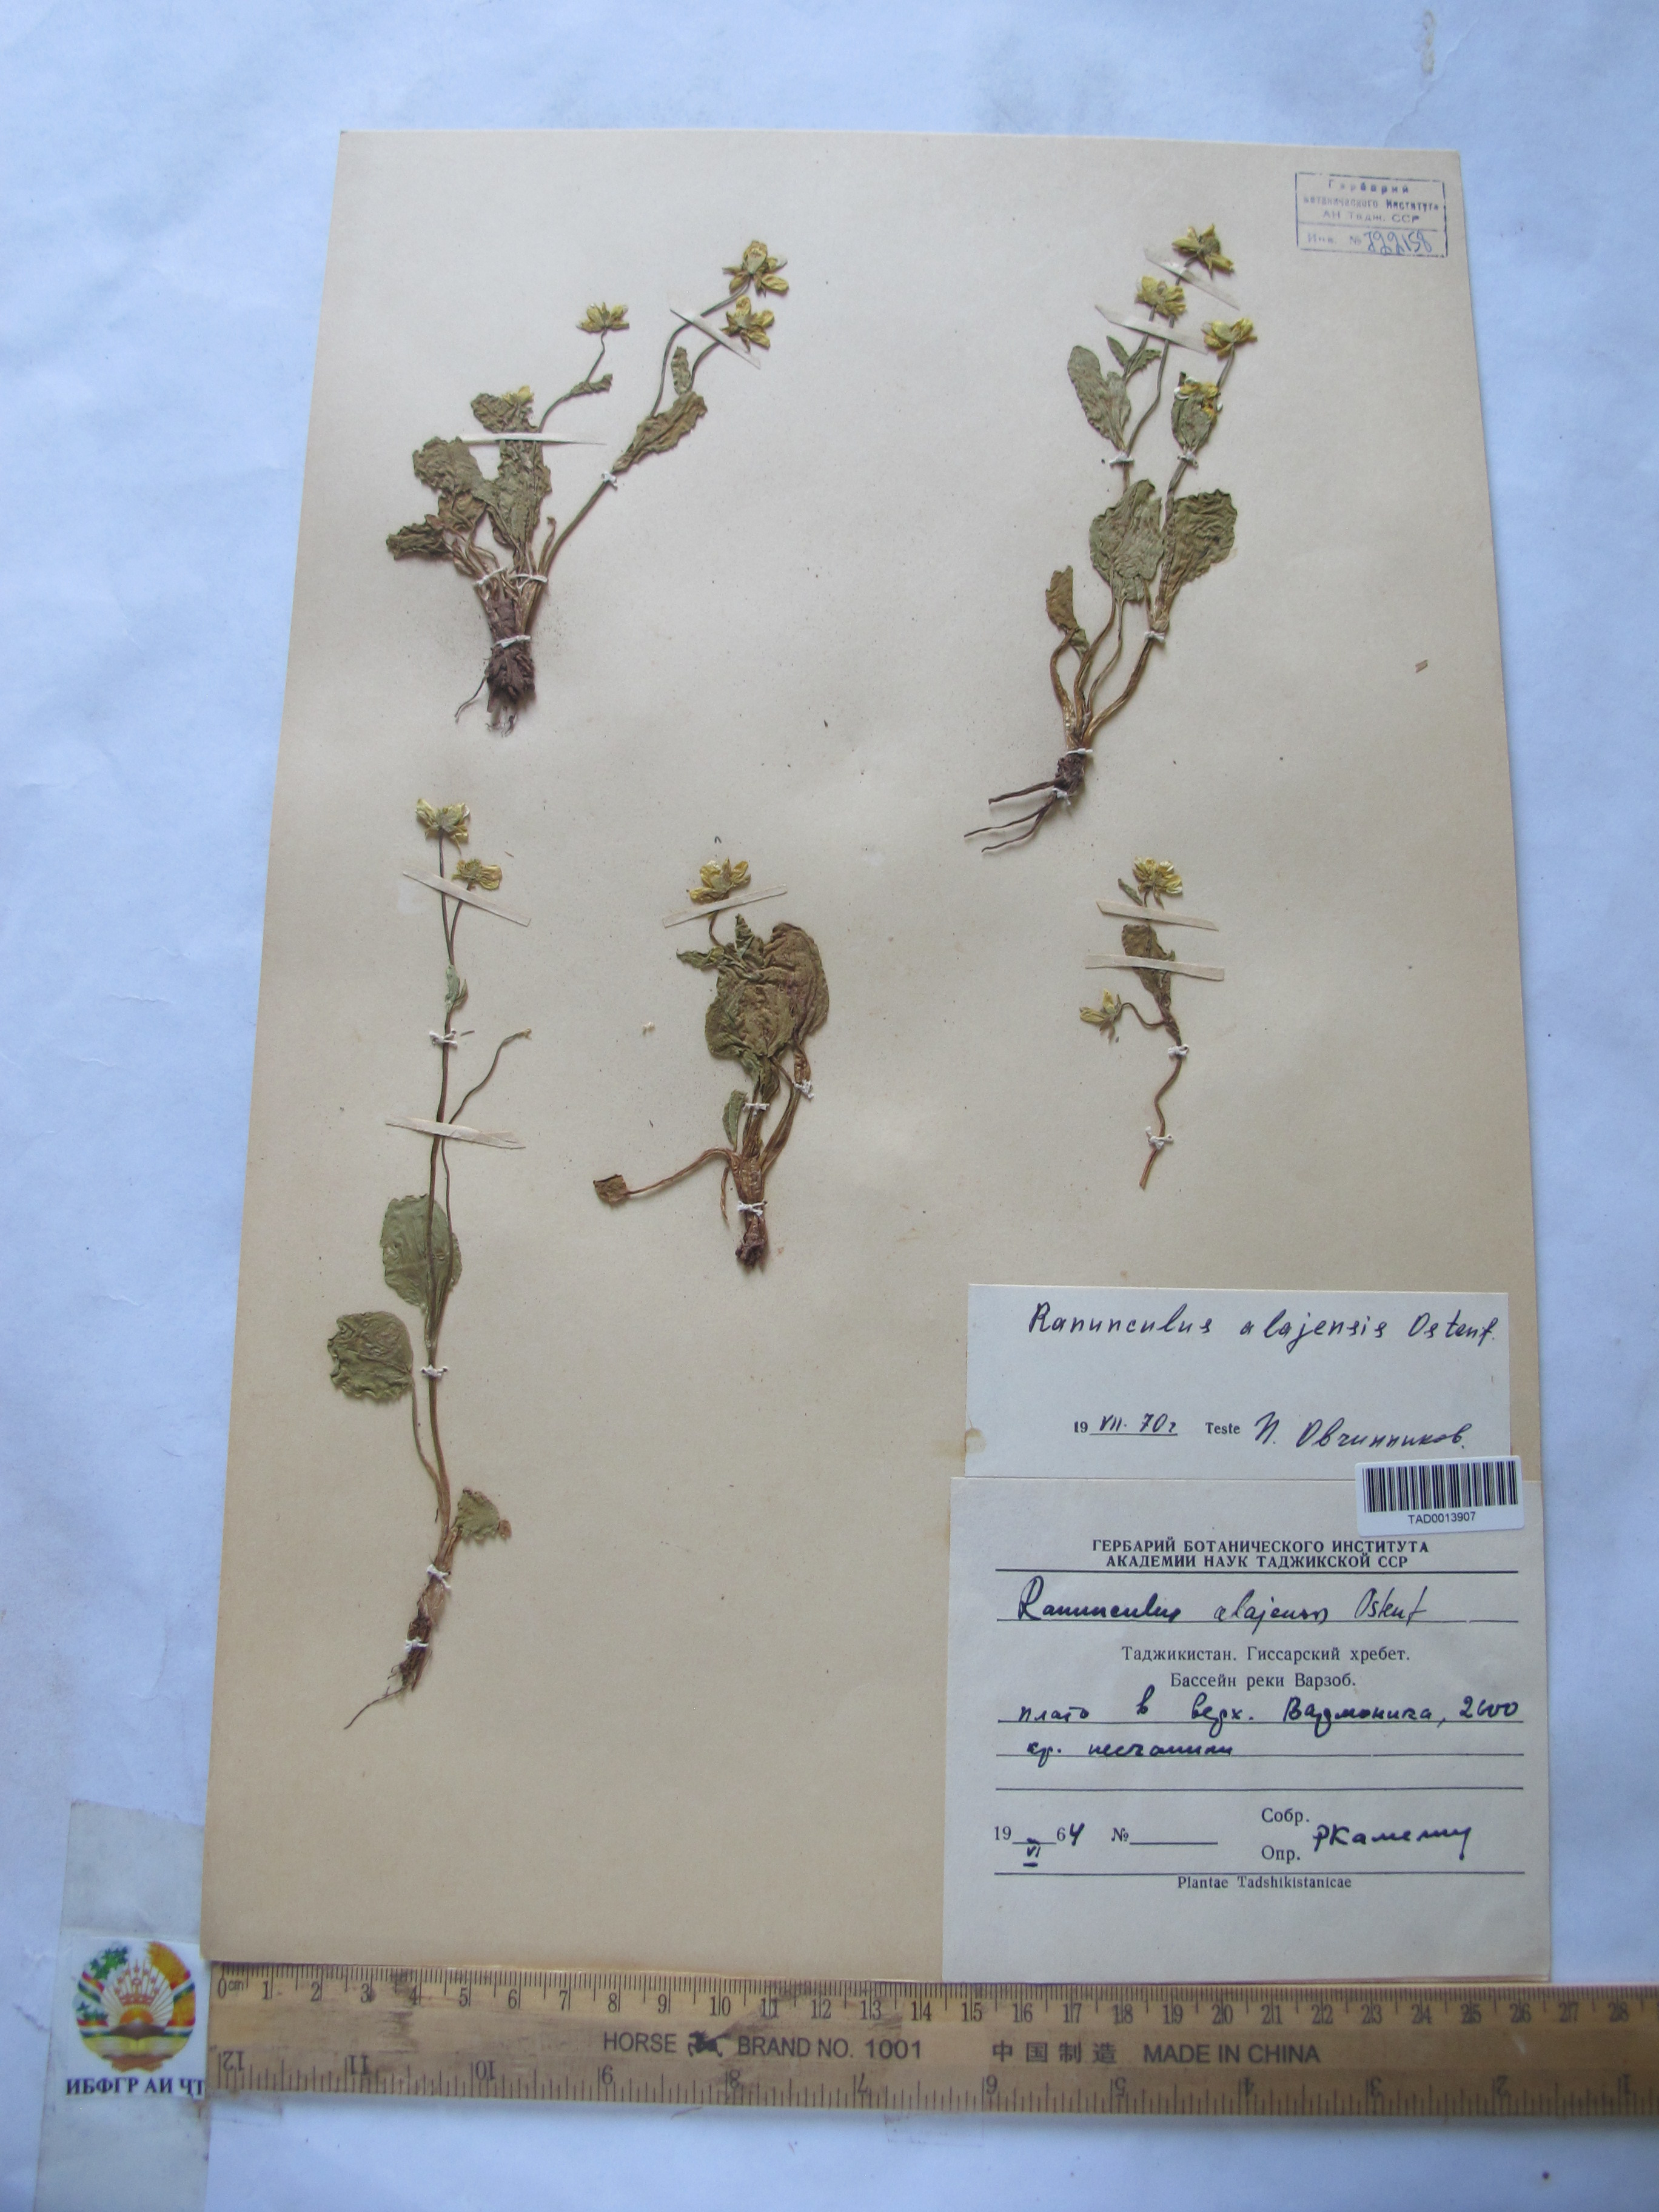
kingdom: Plantae
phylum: Tracheophyta
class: Magnoliopsida
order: Ranunculales
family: Ranunculaceae
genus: Ranunculus
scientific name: Ranunculus alaiensis
